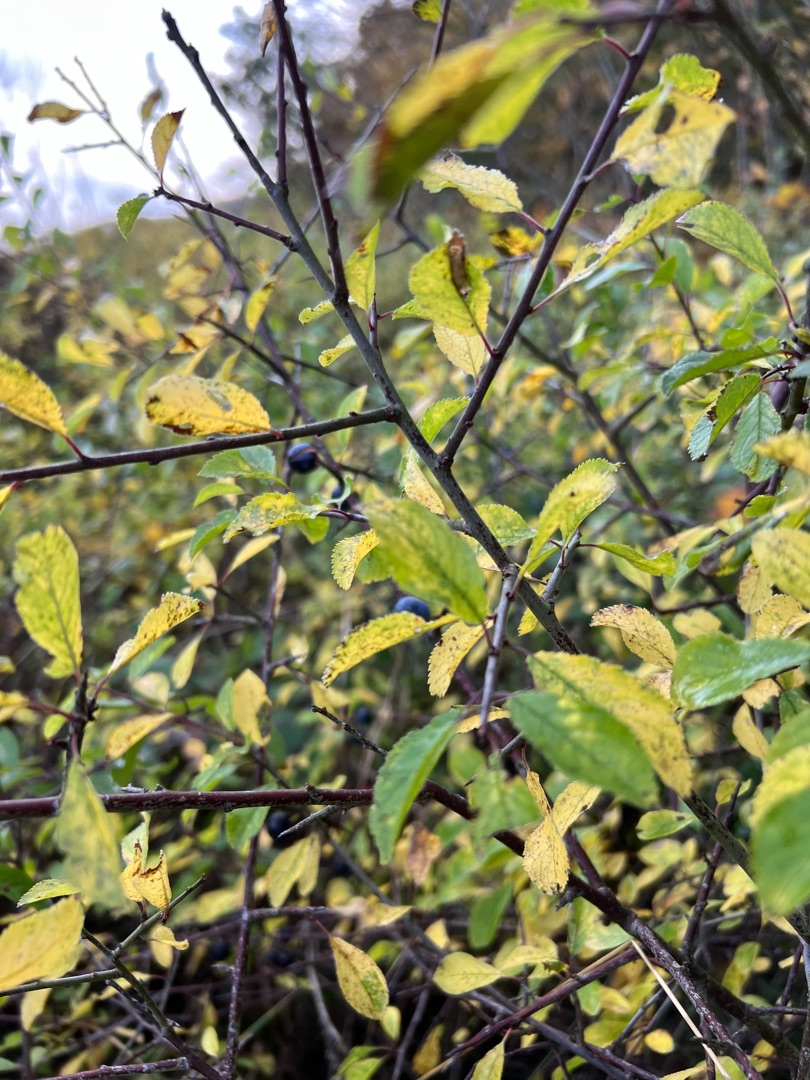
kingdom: Plantae
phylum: Tracheophyta
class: Magnoliopsida
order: Rosales
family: Rosaceae
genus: Prunus
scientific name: Prunus spinosa
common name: Slåen
